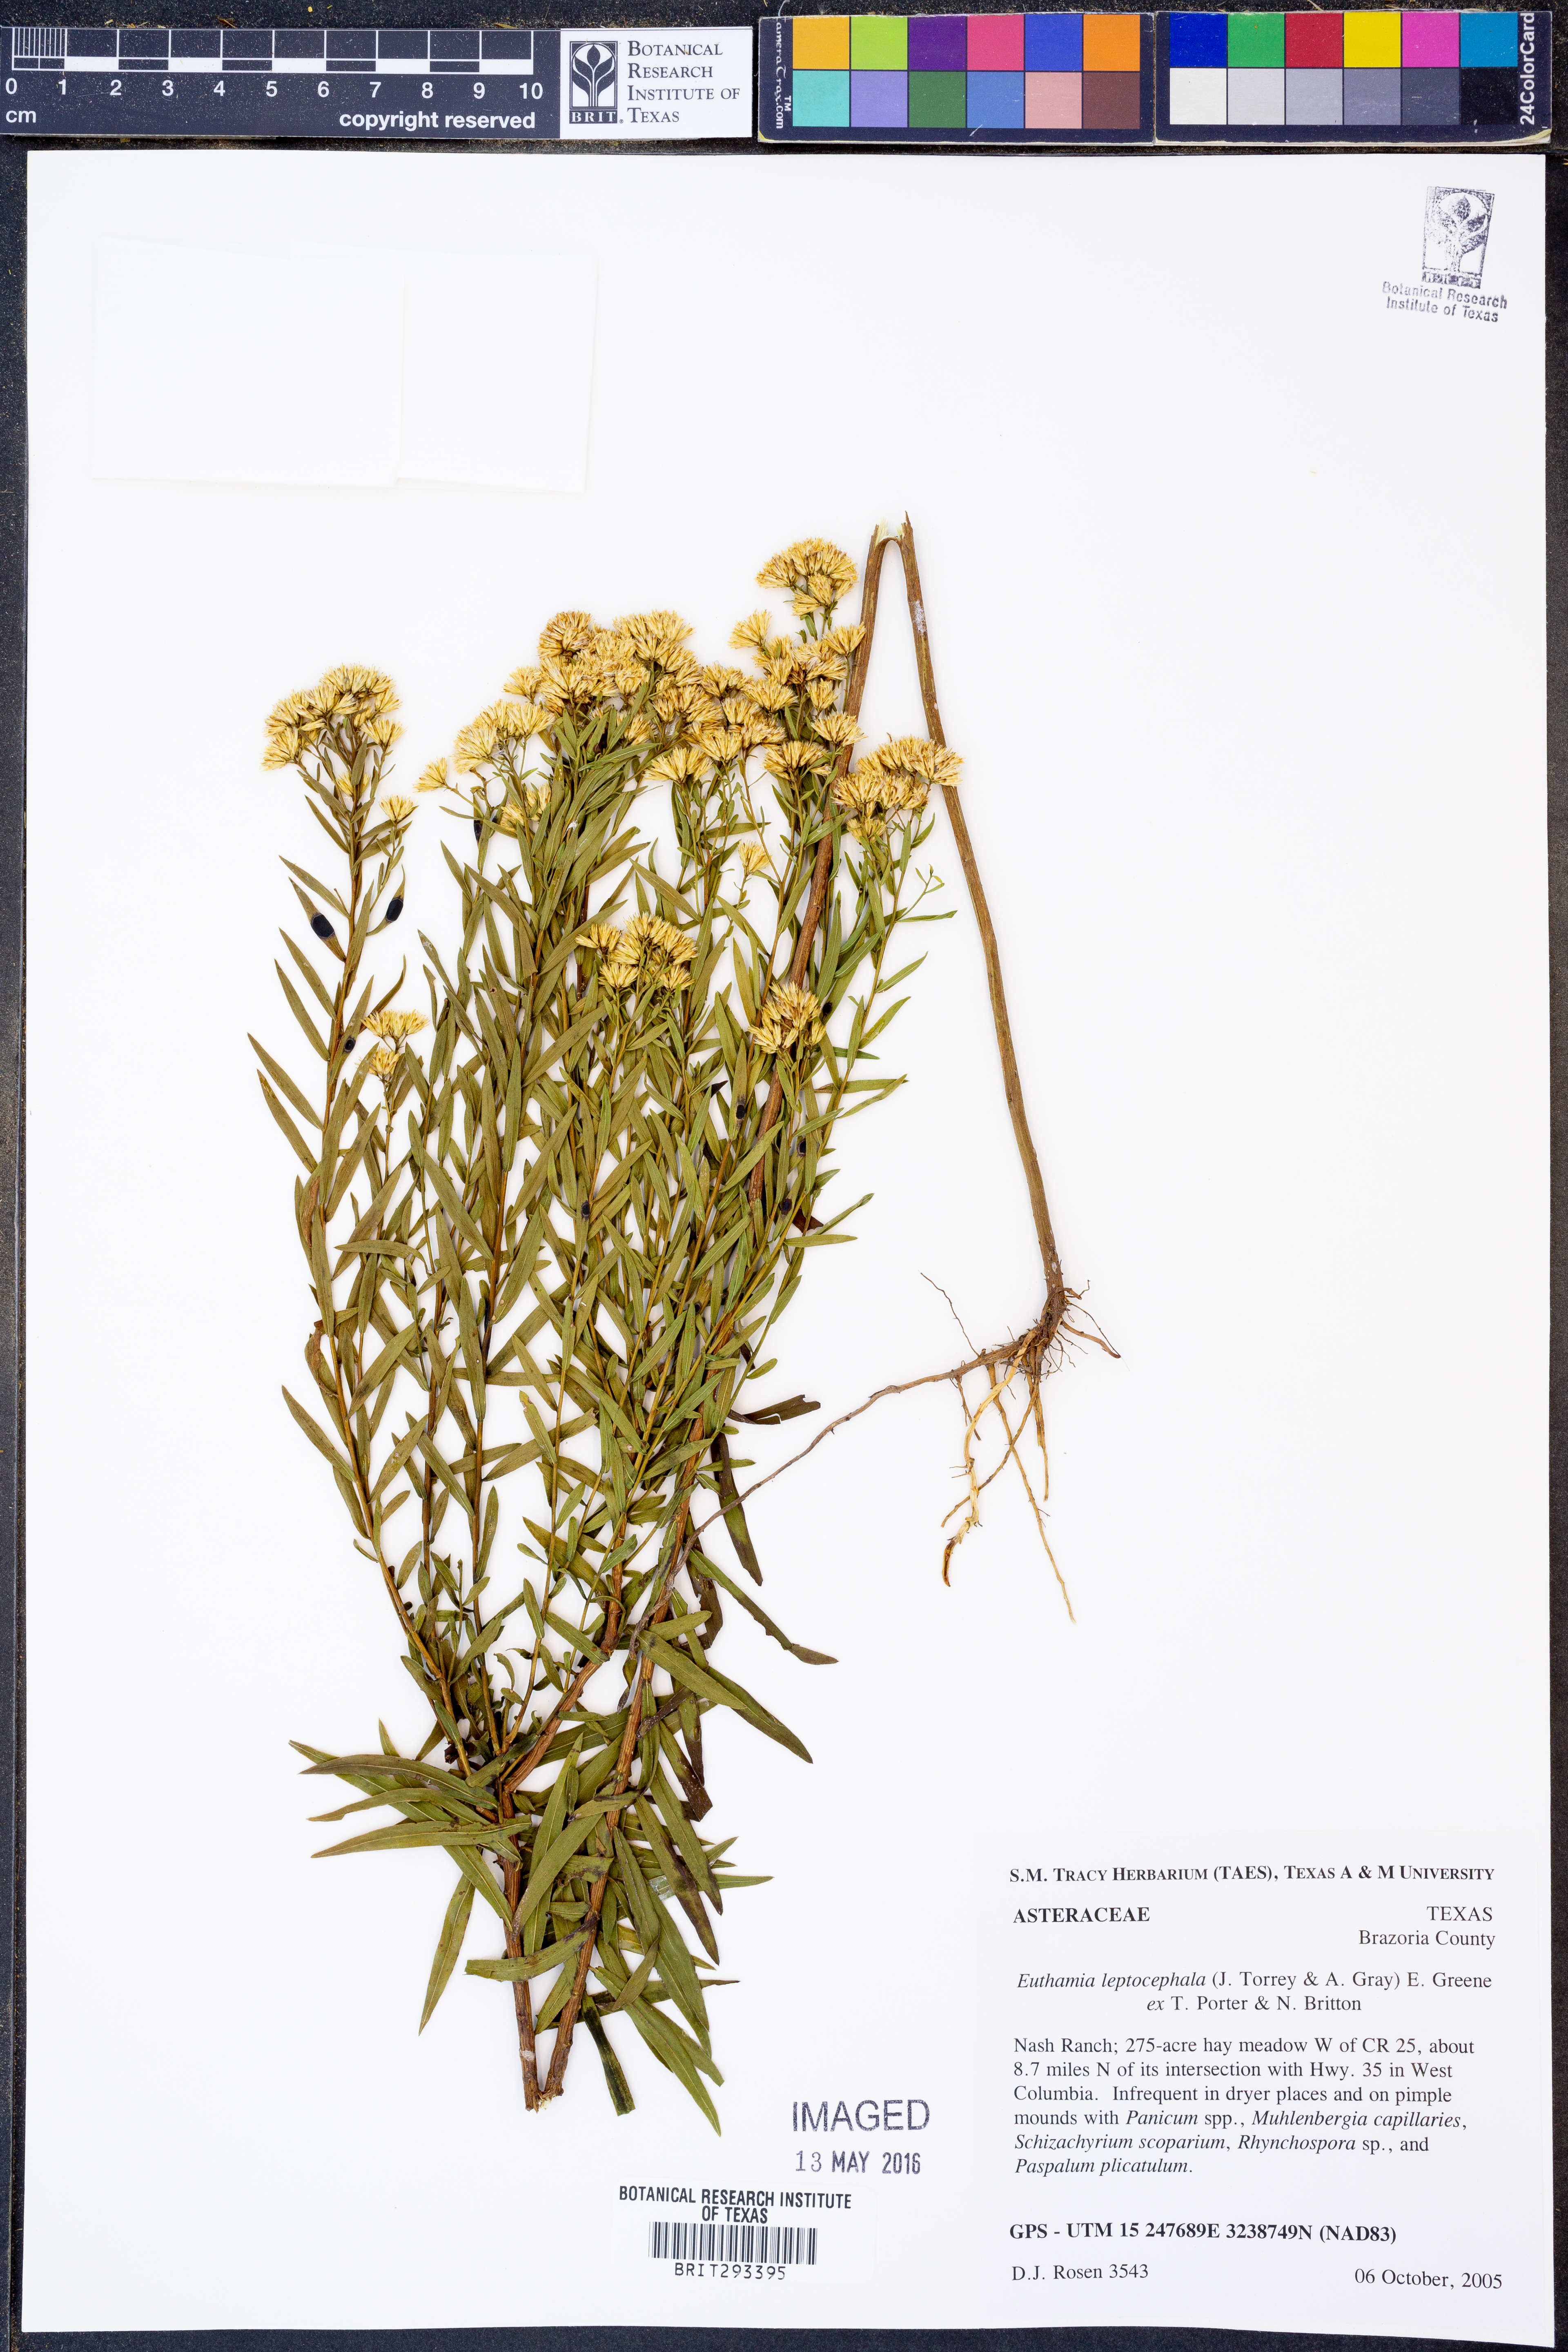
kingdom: Plantae
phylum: Tracheophyta
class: Magnoliopsida
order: Asterales
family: Asteraceae
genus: Euthamia
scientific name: Euthamia leptocephala
